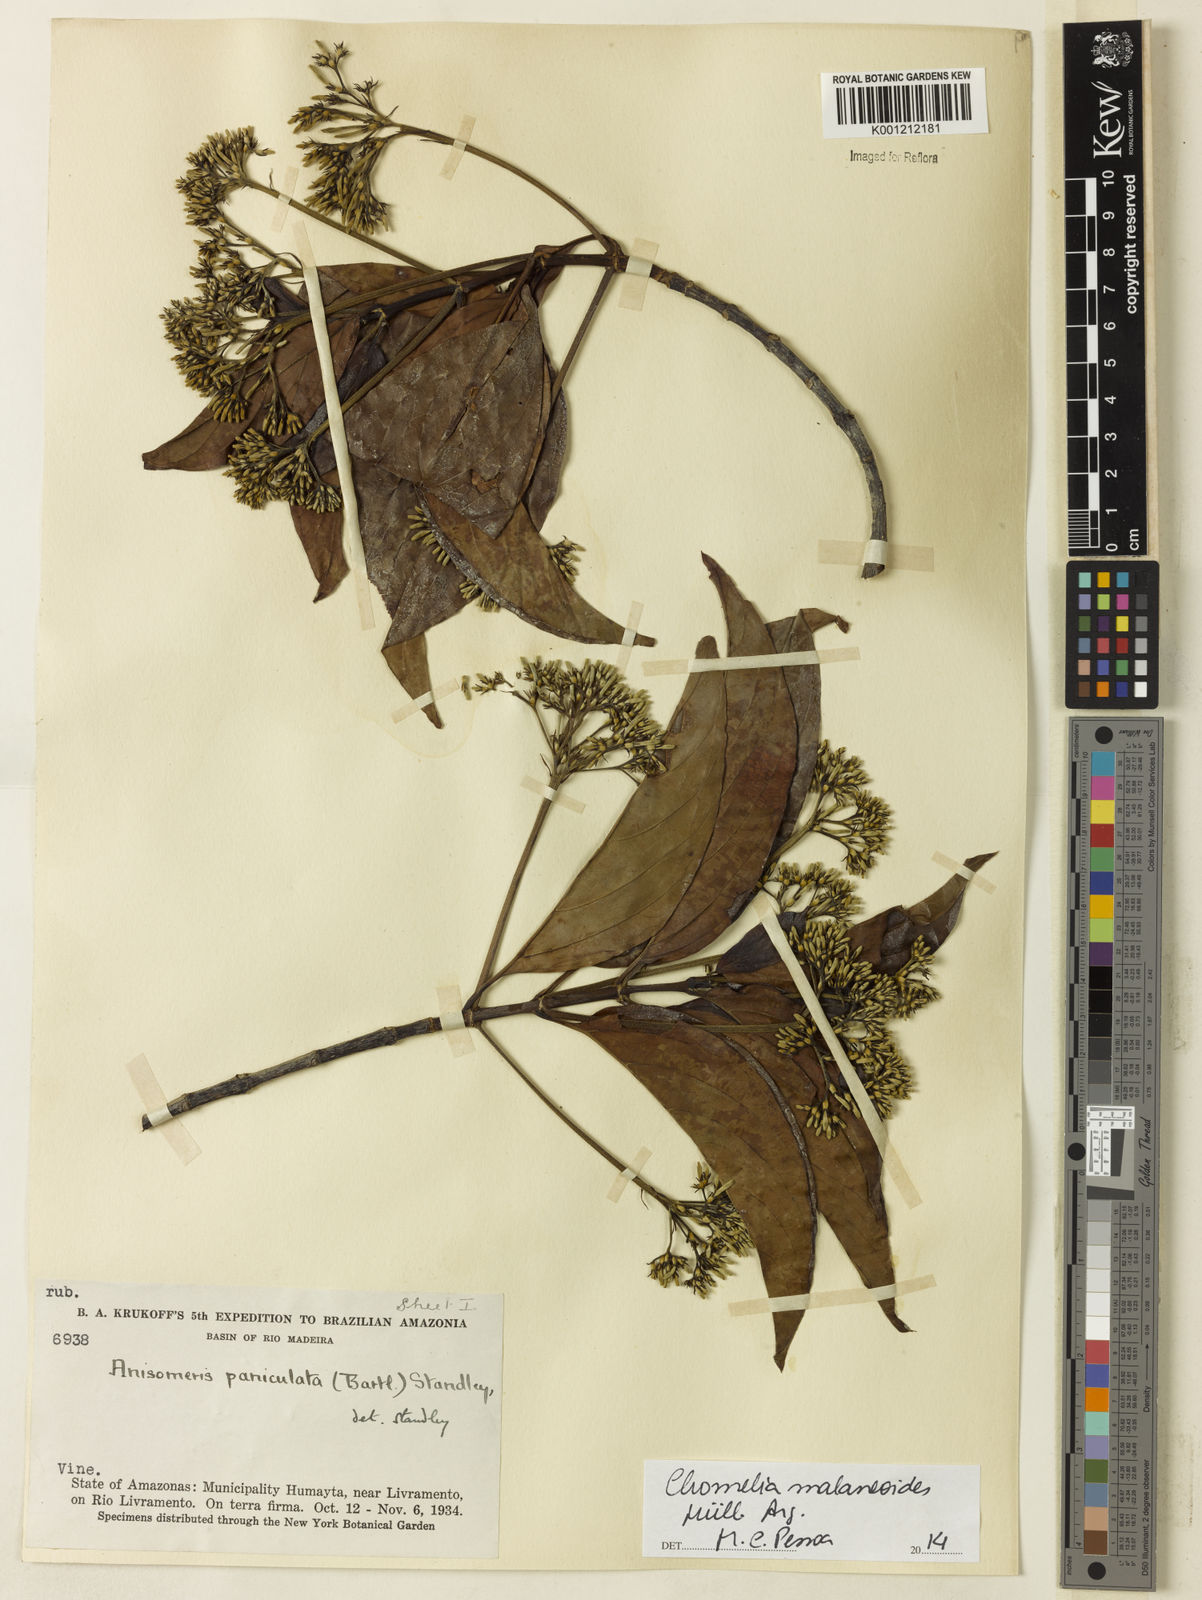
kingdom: Plantae
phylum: Tracheophyta
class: Magnoliopsida
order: Gentianales
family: Rubiaceae
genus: Chomelia
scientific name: Chomelia
